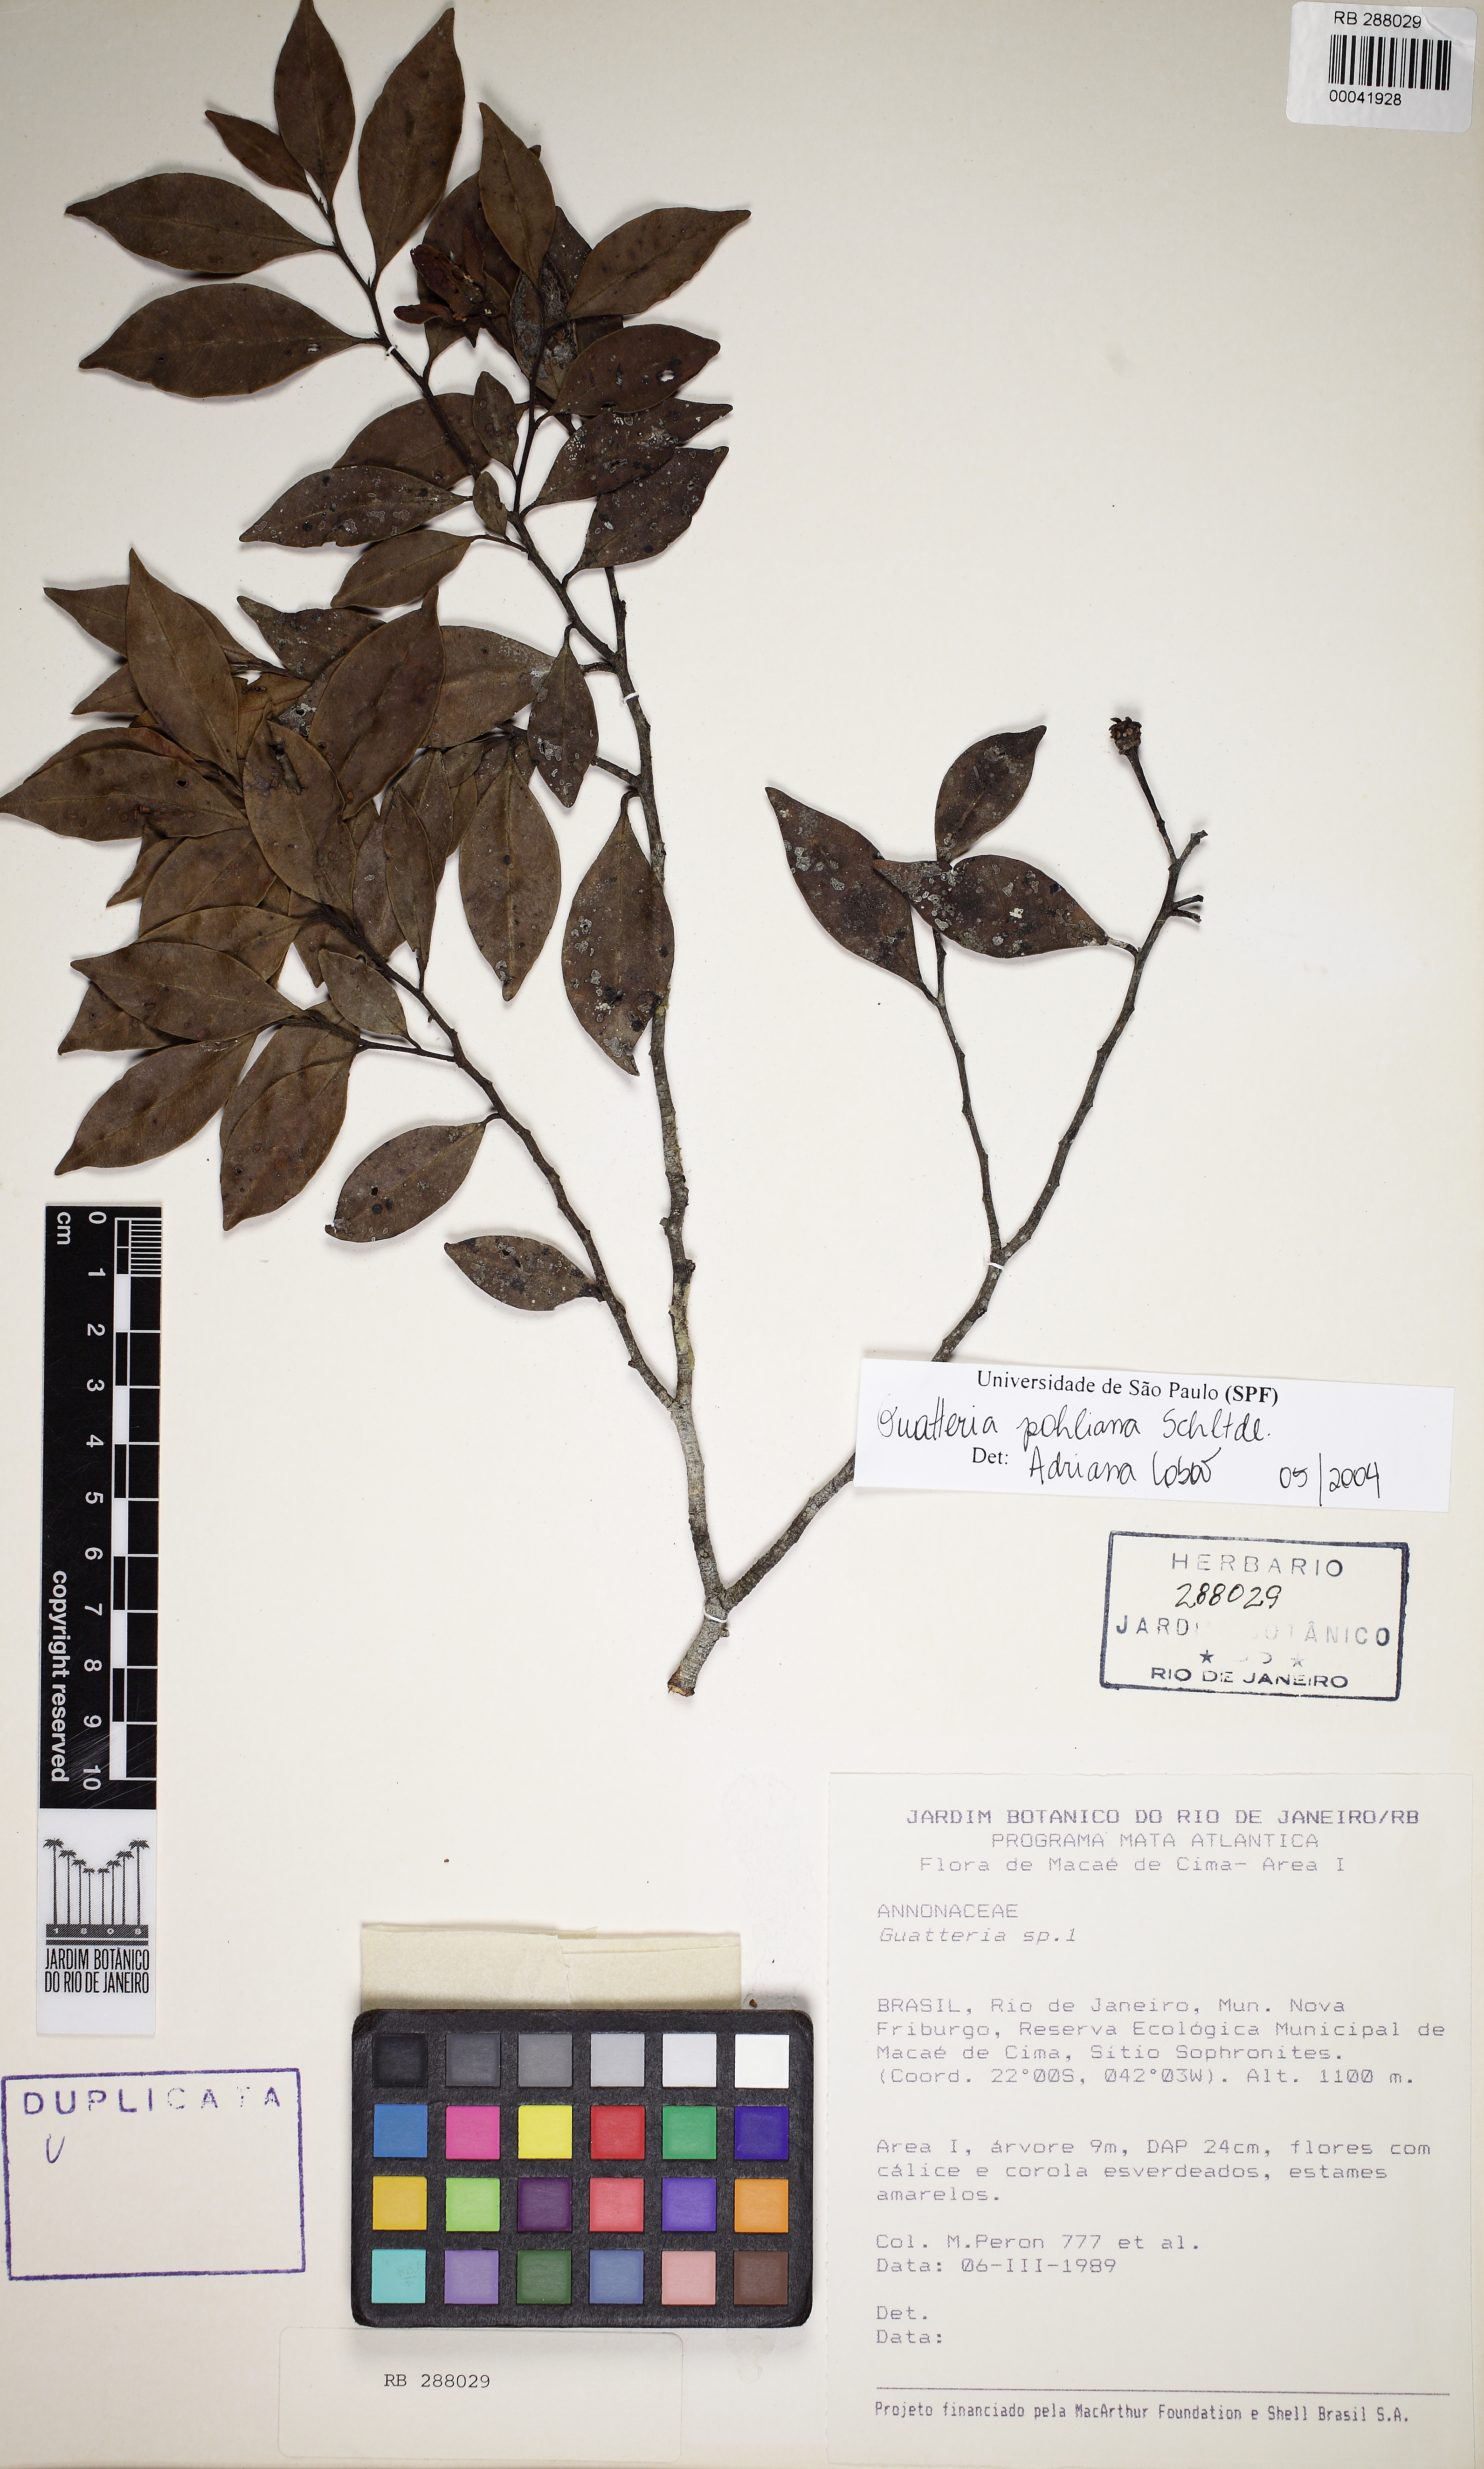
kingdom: Plantae
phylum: Tracheophyta
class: Magnoliopsida
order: Magnoliales
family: Annonaceae
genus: Guatteria
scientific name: Guatteria pohliana
